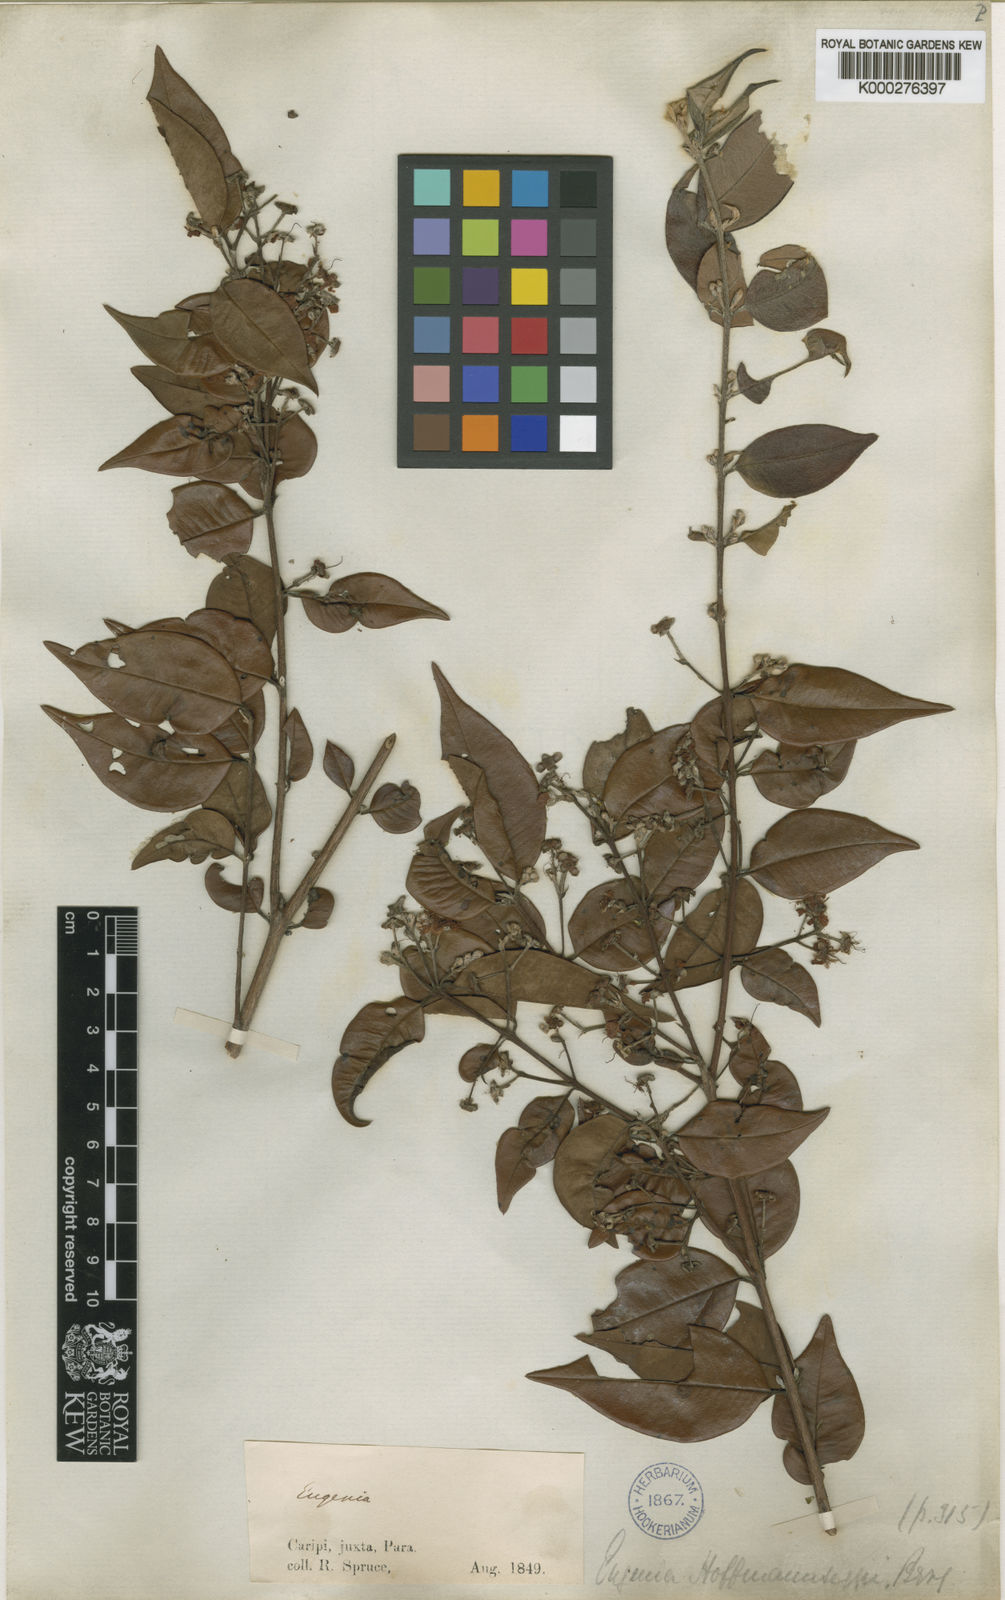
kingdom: Plantae
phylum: Tracheophyta
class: Magnoliopsida
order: Myrtales
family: Myrtaceae
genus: Eugenia
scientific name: Eugenia biflora
